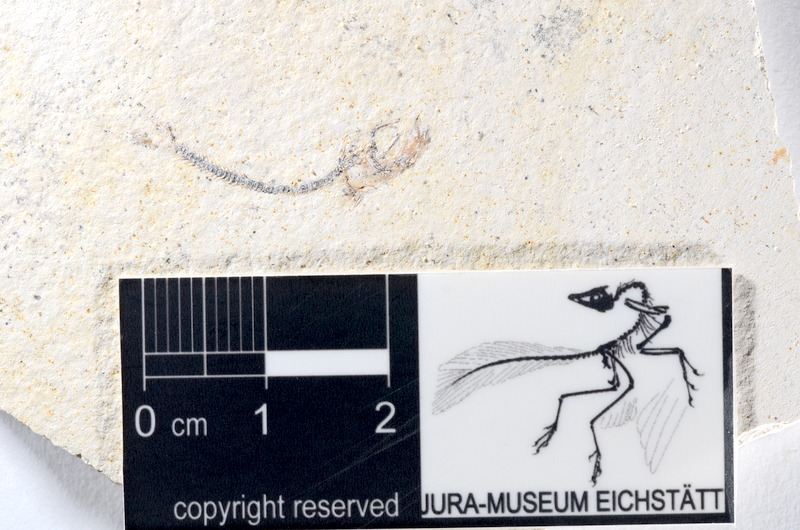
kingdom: Animalia
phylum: Chordata
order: Salmoniformes
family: Orthogonikleithridae
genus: Orthogonikleithrus
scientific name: Orthogonikleithrus hoelli
